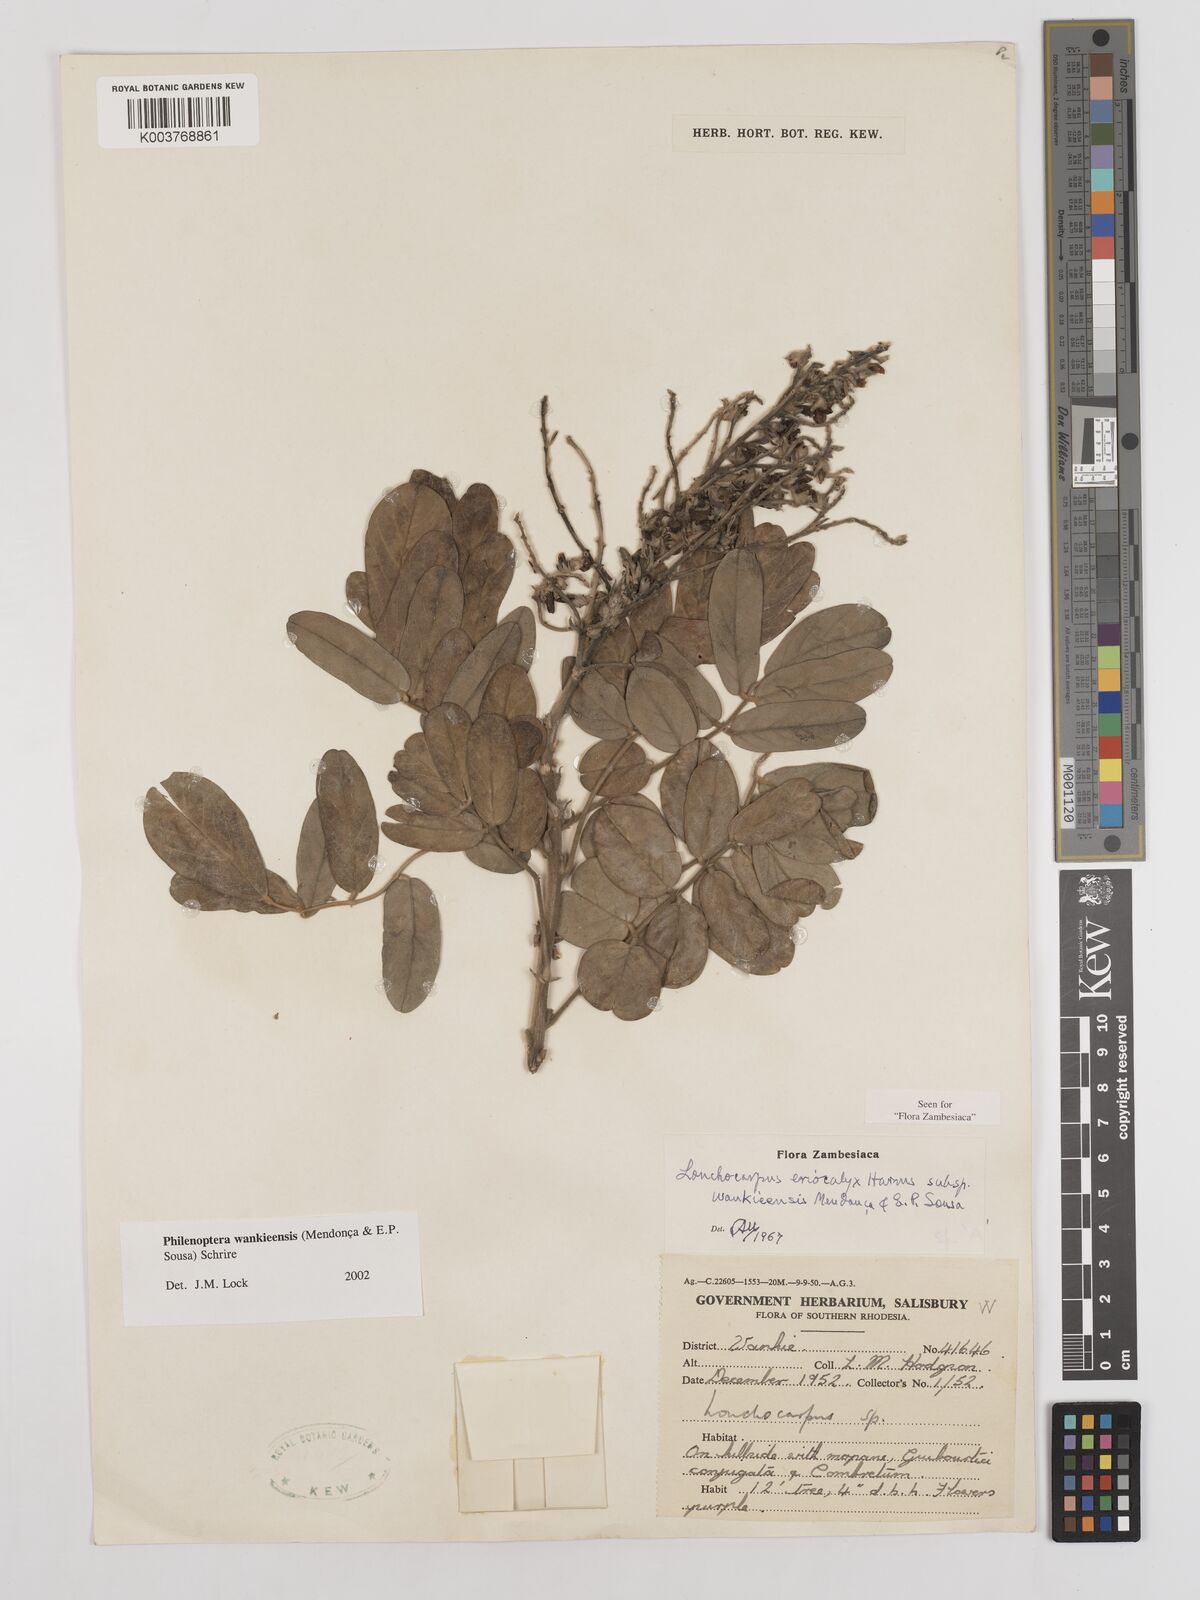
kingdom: Plantae
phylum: Tracheophyta
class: Magnoliopsida
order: Fabales
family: Fabaceae
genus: Philenoptera
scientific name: Philenoptera wankieensis
